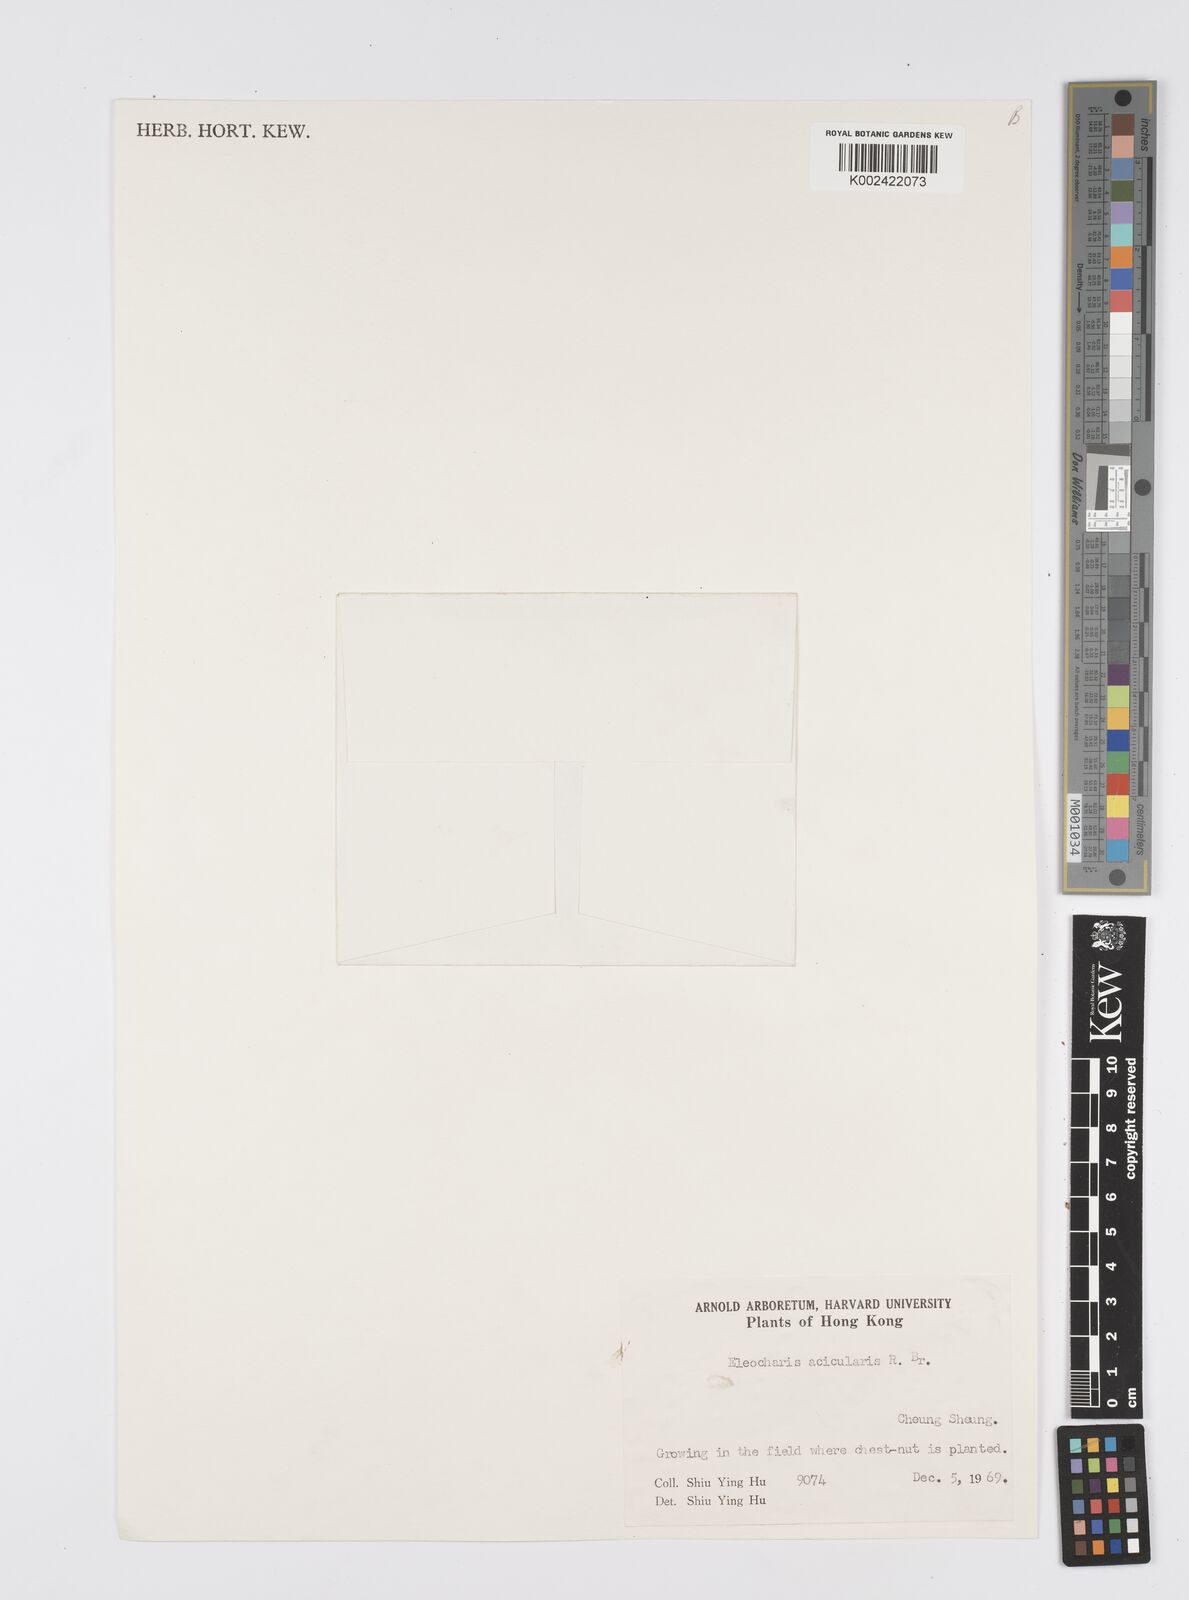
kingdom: Plantae
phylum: Tracheophyta
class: Liliopsida
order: Poales
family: Cyperaceae
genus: Eleocharis
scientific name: Eleocharis acicularis
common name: Needle spike-rush
